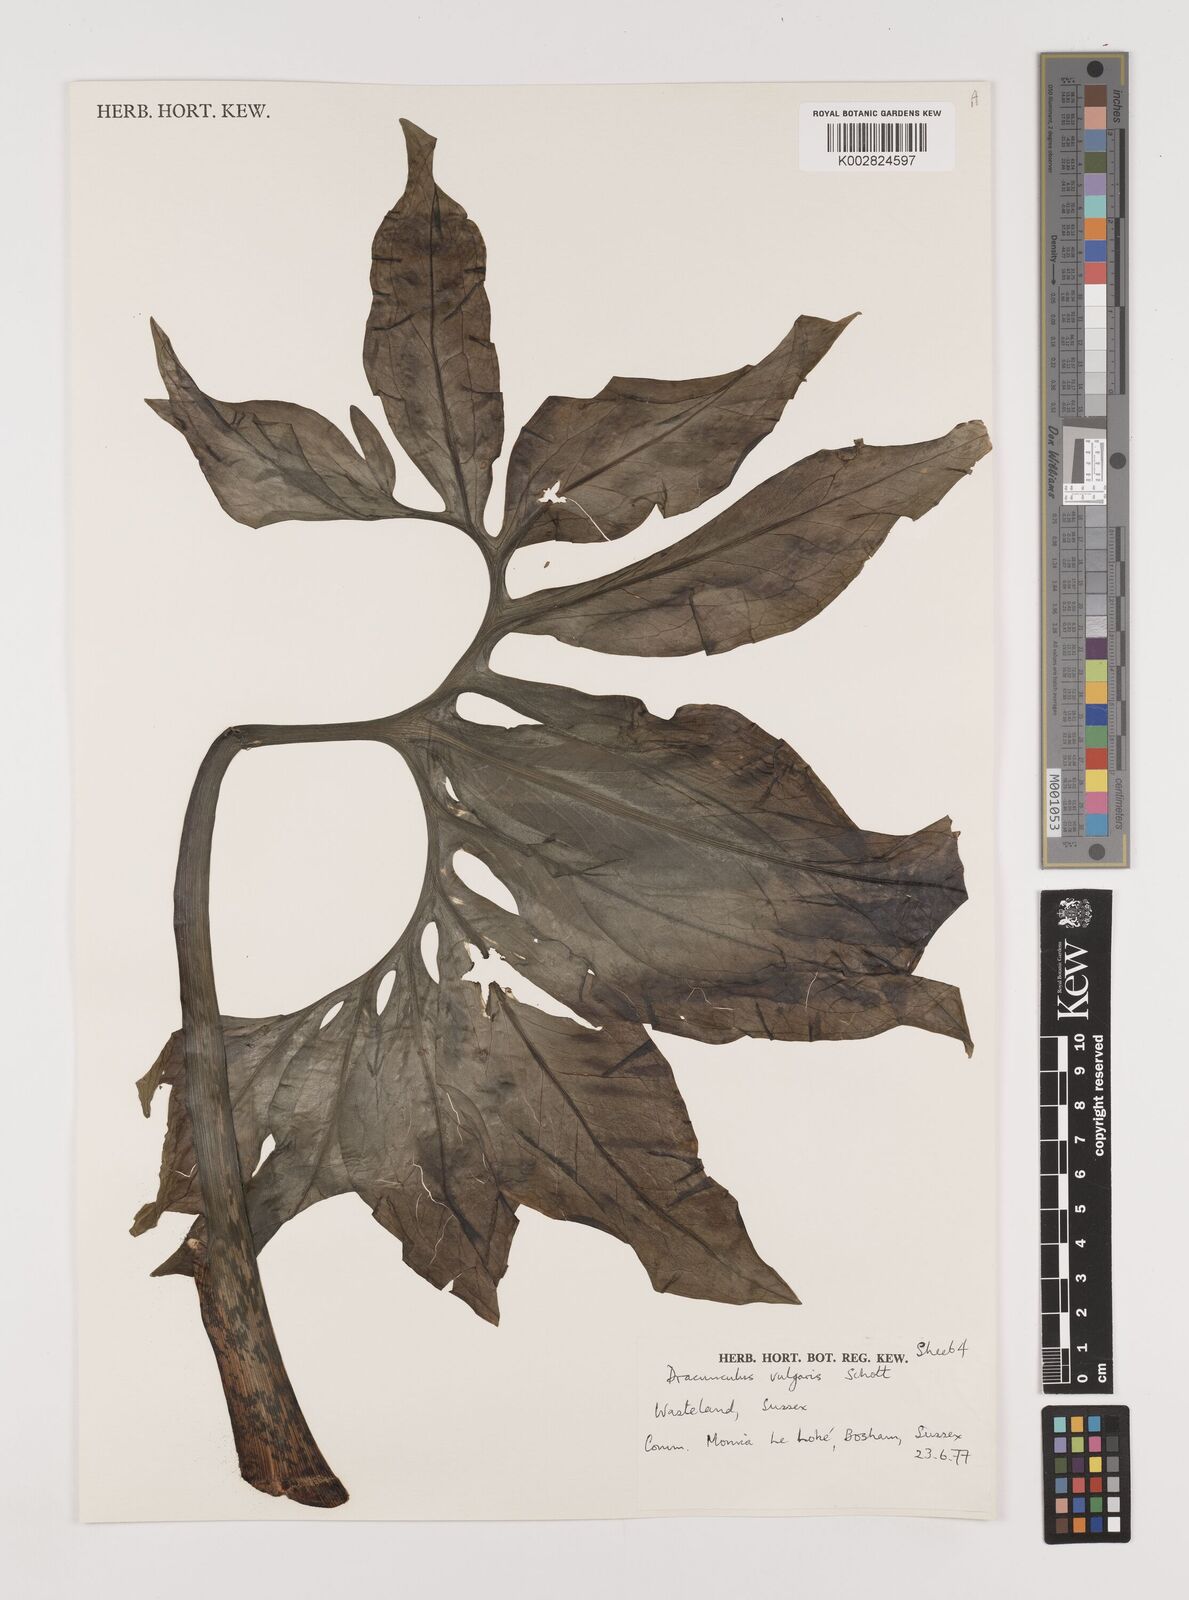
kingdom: Plantae
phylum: Tracheophyta
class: Liliopsida
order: Alismatales
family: Araceae
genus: Dracunculus
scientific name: Dracunculus vulgaris
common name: Dragon arum
